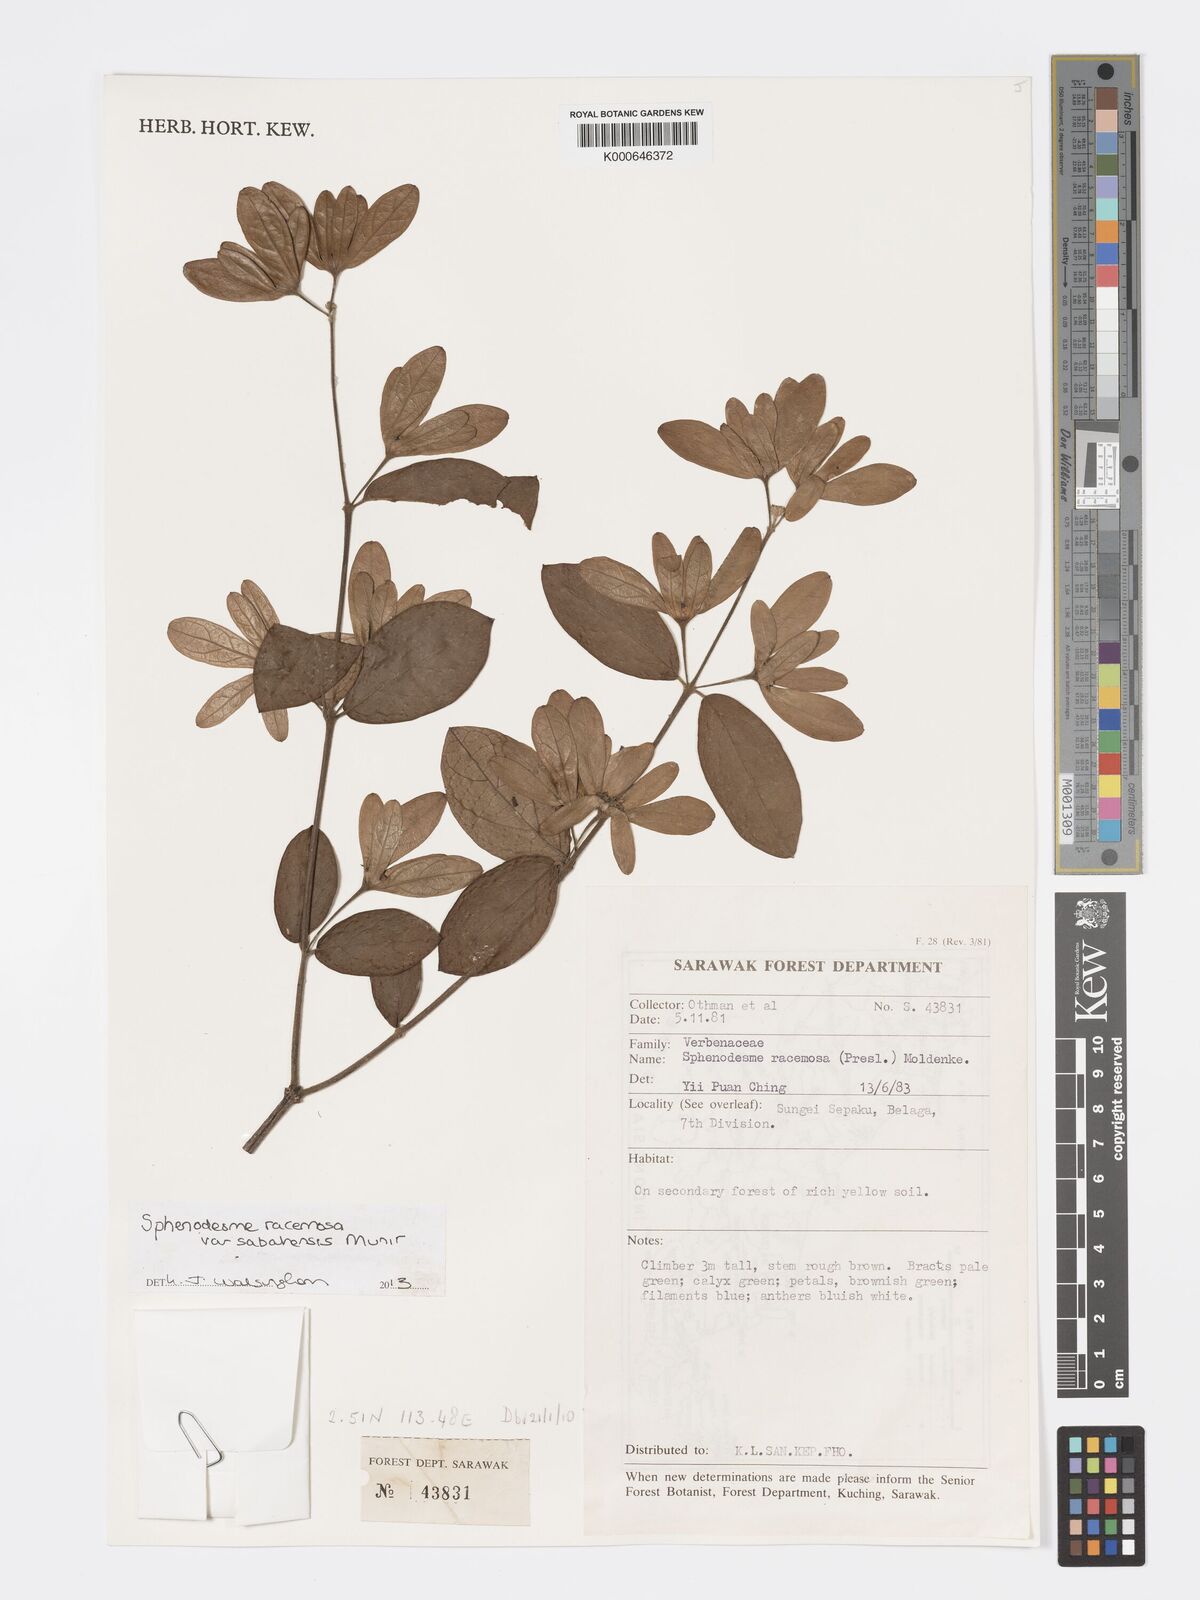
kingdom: Plantae
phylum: Tracheophyta
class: Magnoliopsida
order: Lamiales
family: Lamiaceae
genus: Sphenodesme
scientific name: Sphenodesme racemosa
